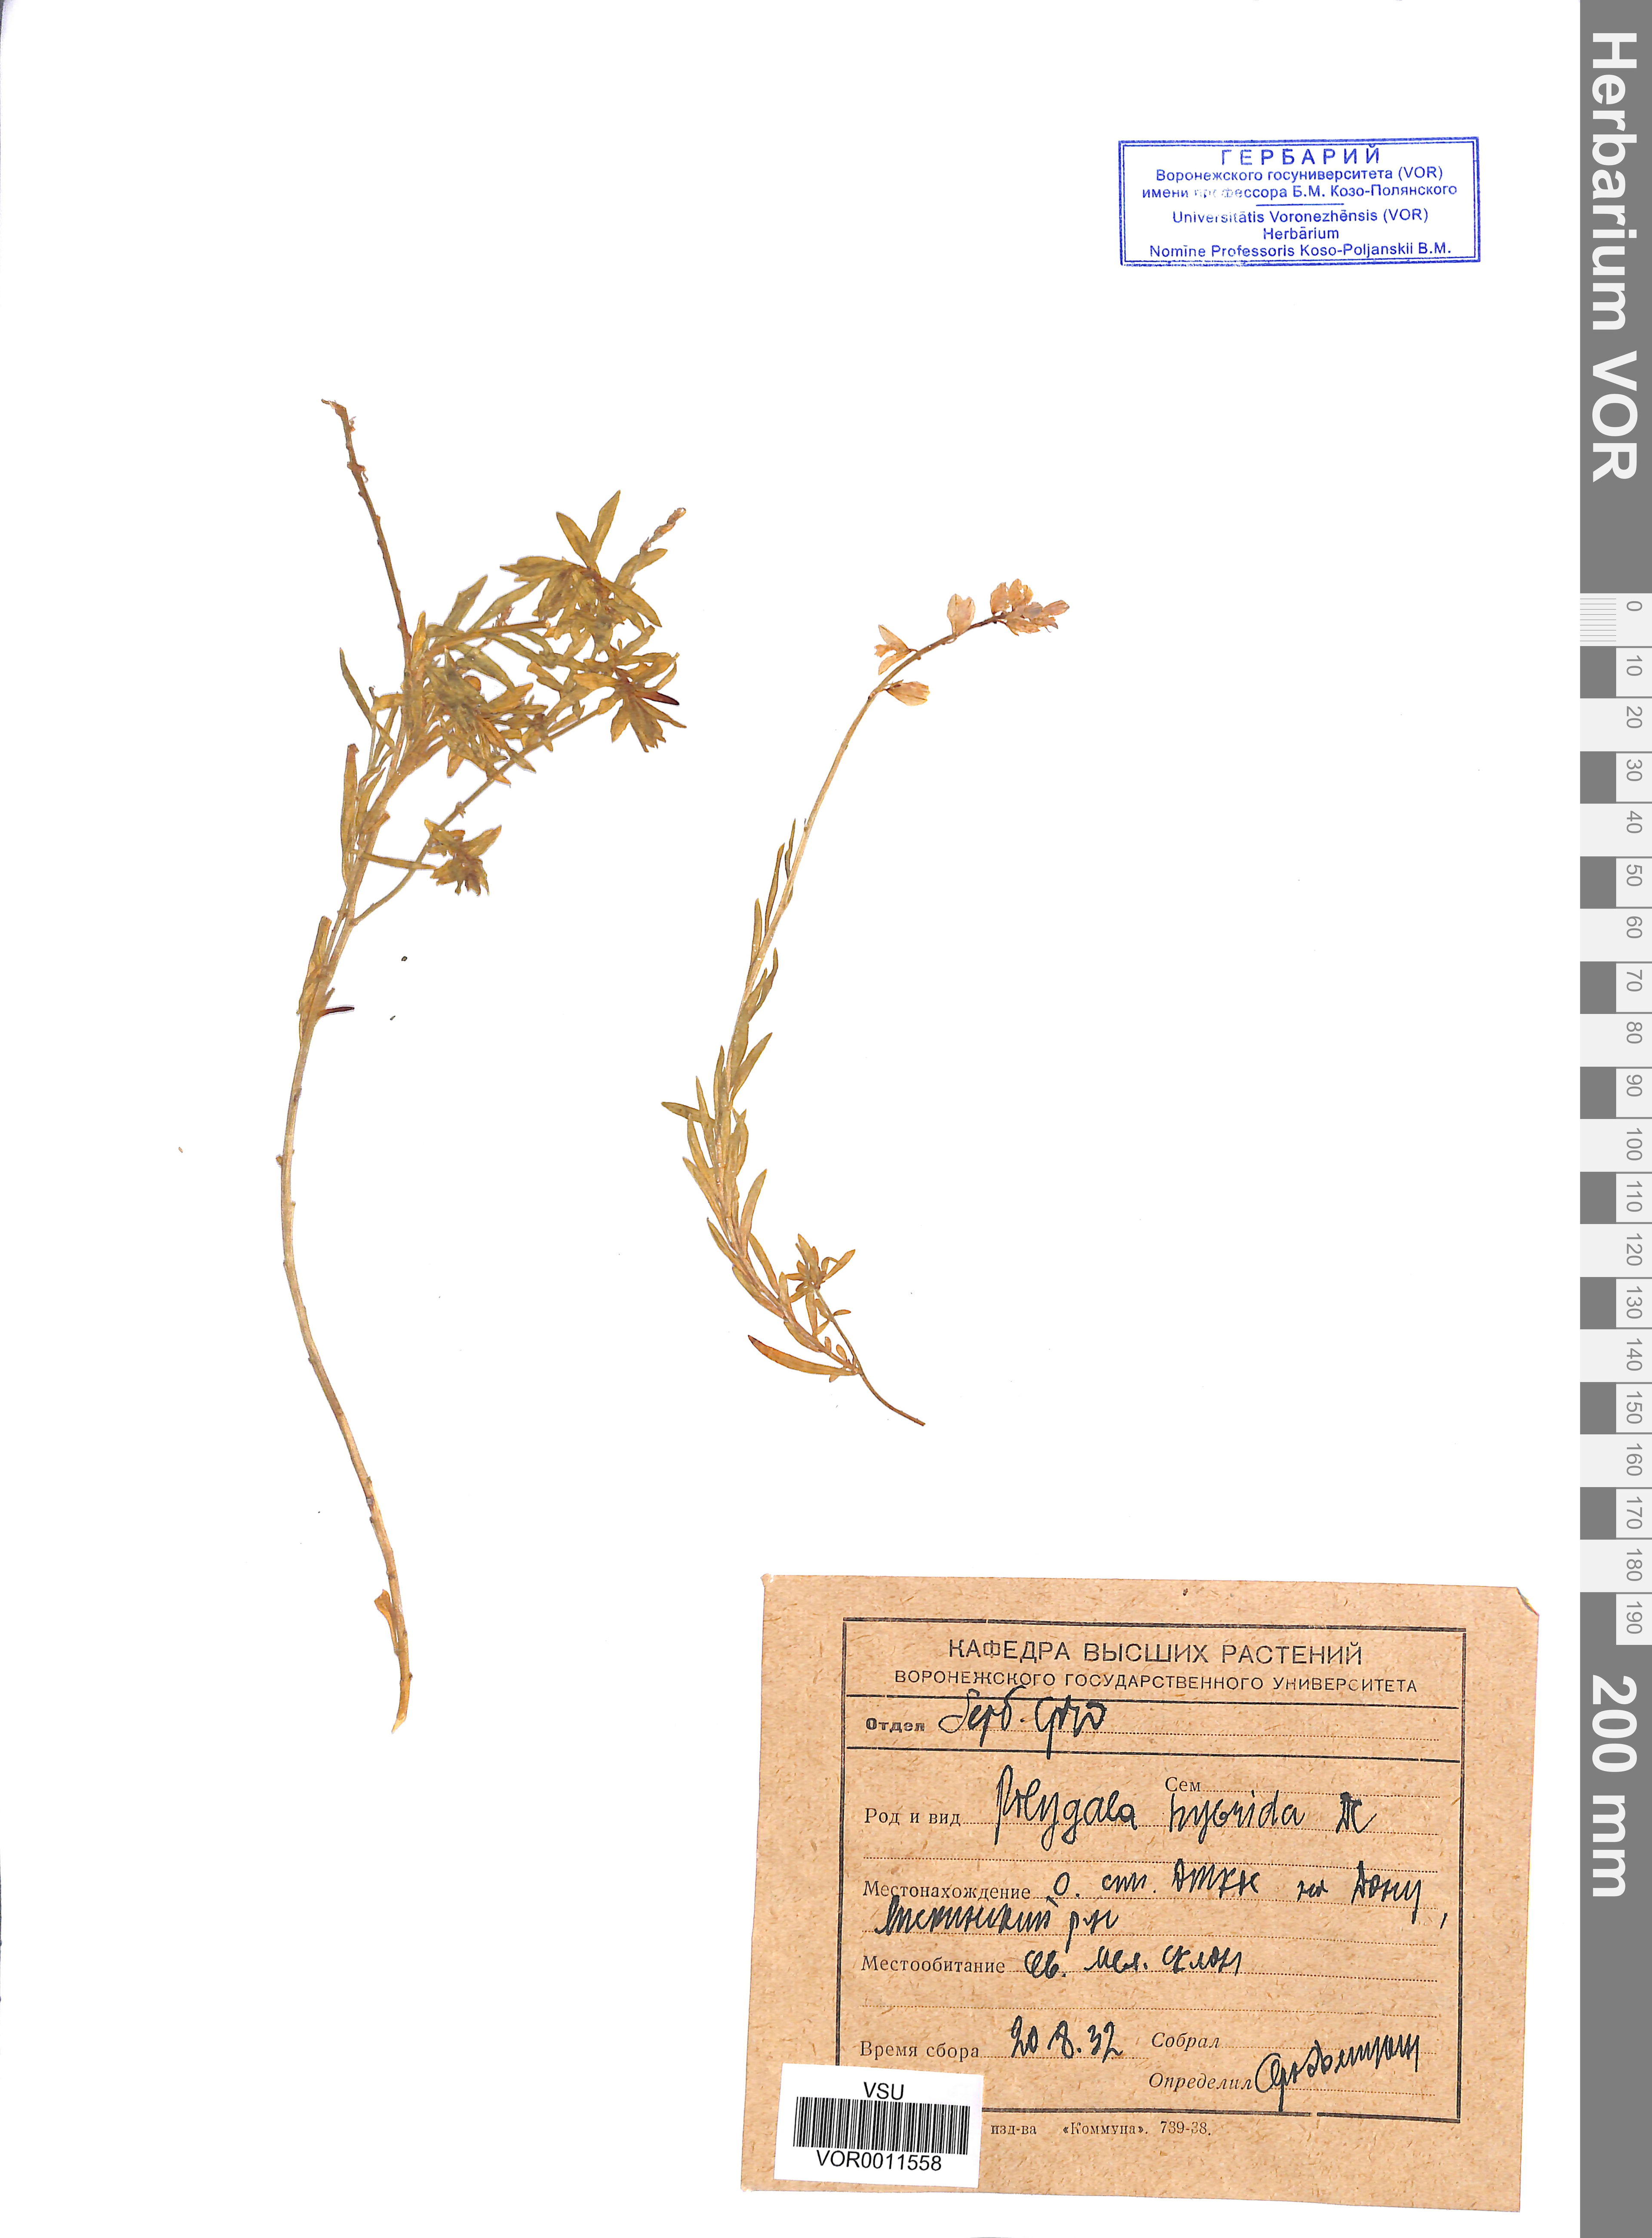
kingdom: Plantae
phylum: Tracheophyta
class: Magnoliopsida
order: Fabales
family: Polygalaceae
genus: Polygala
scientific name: Polygala comosa
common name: Tufted milkwort
